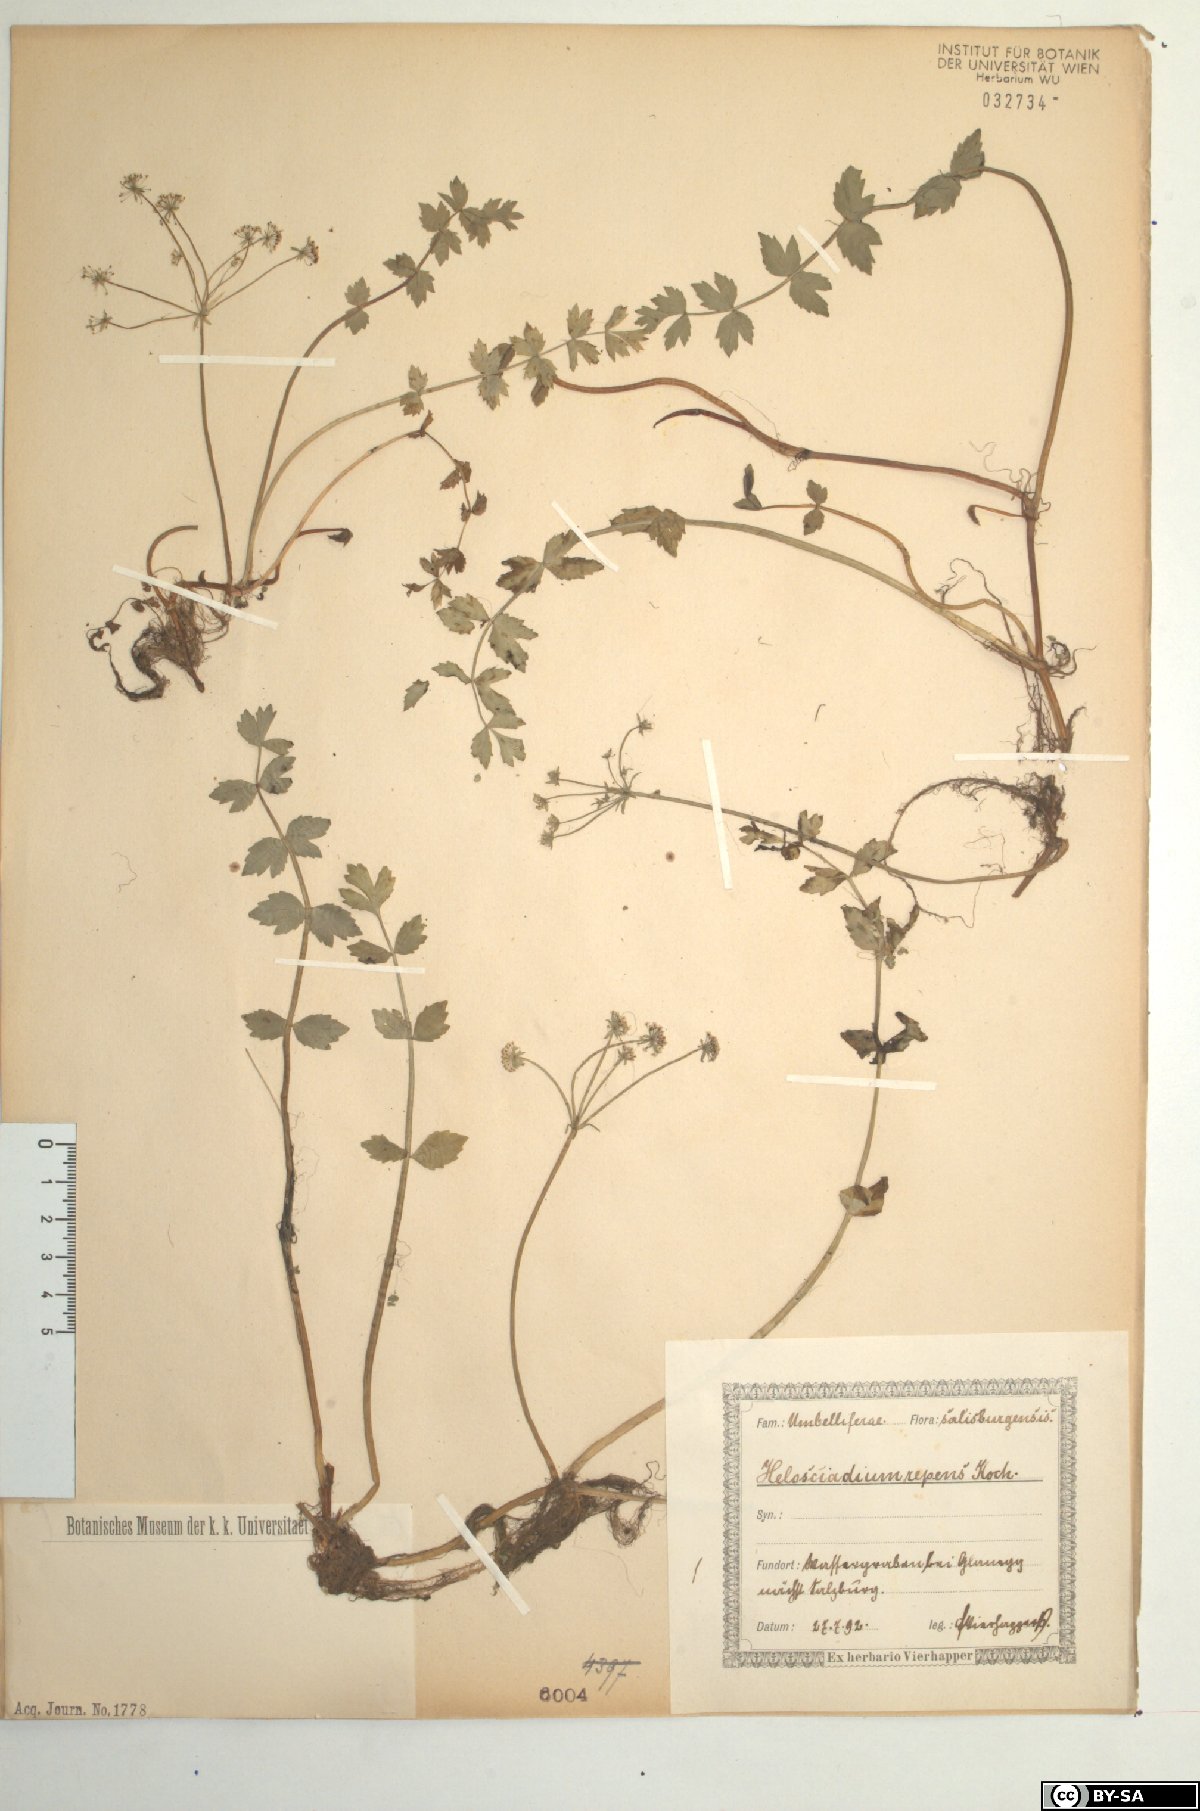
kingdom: Plantae
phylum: Tracheophyta
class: Magnoliopsida
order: Apiales
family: Apiaceae
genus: Helosciadium
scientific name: Helosciadium repens
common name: Creeping marshwort
